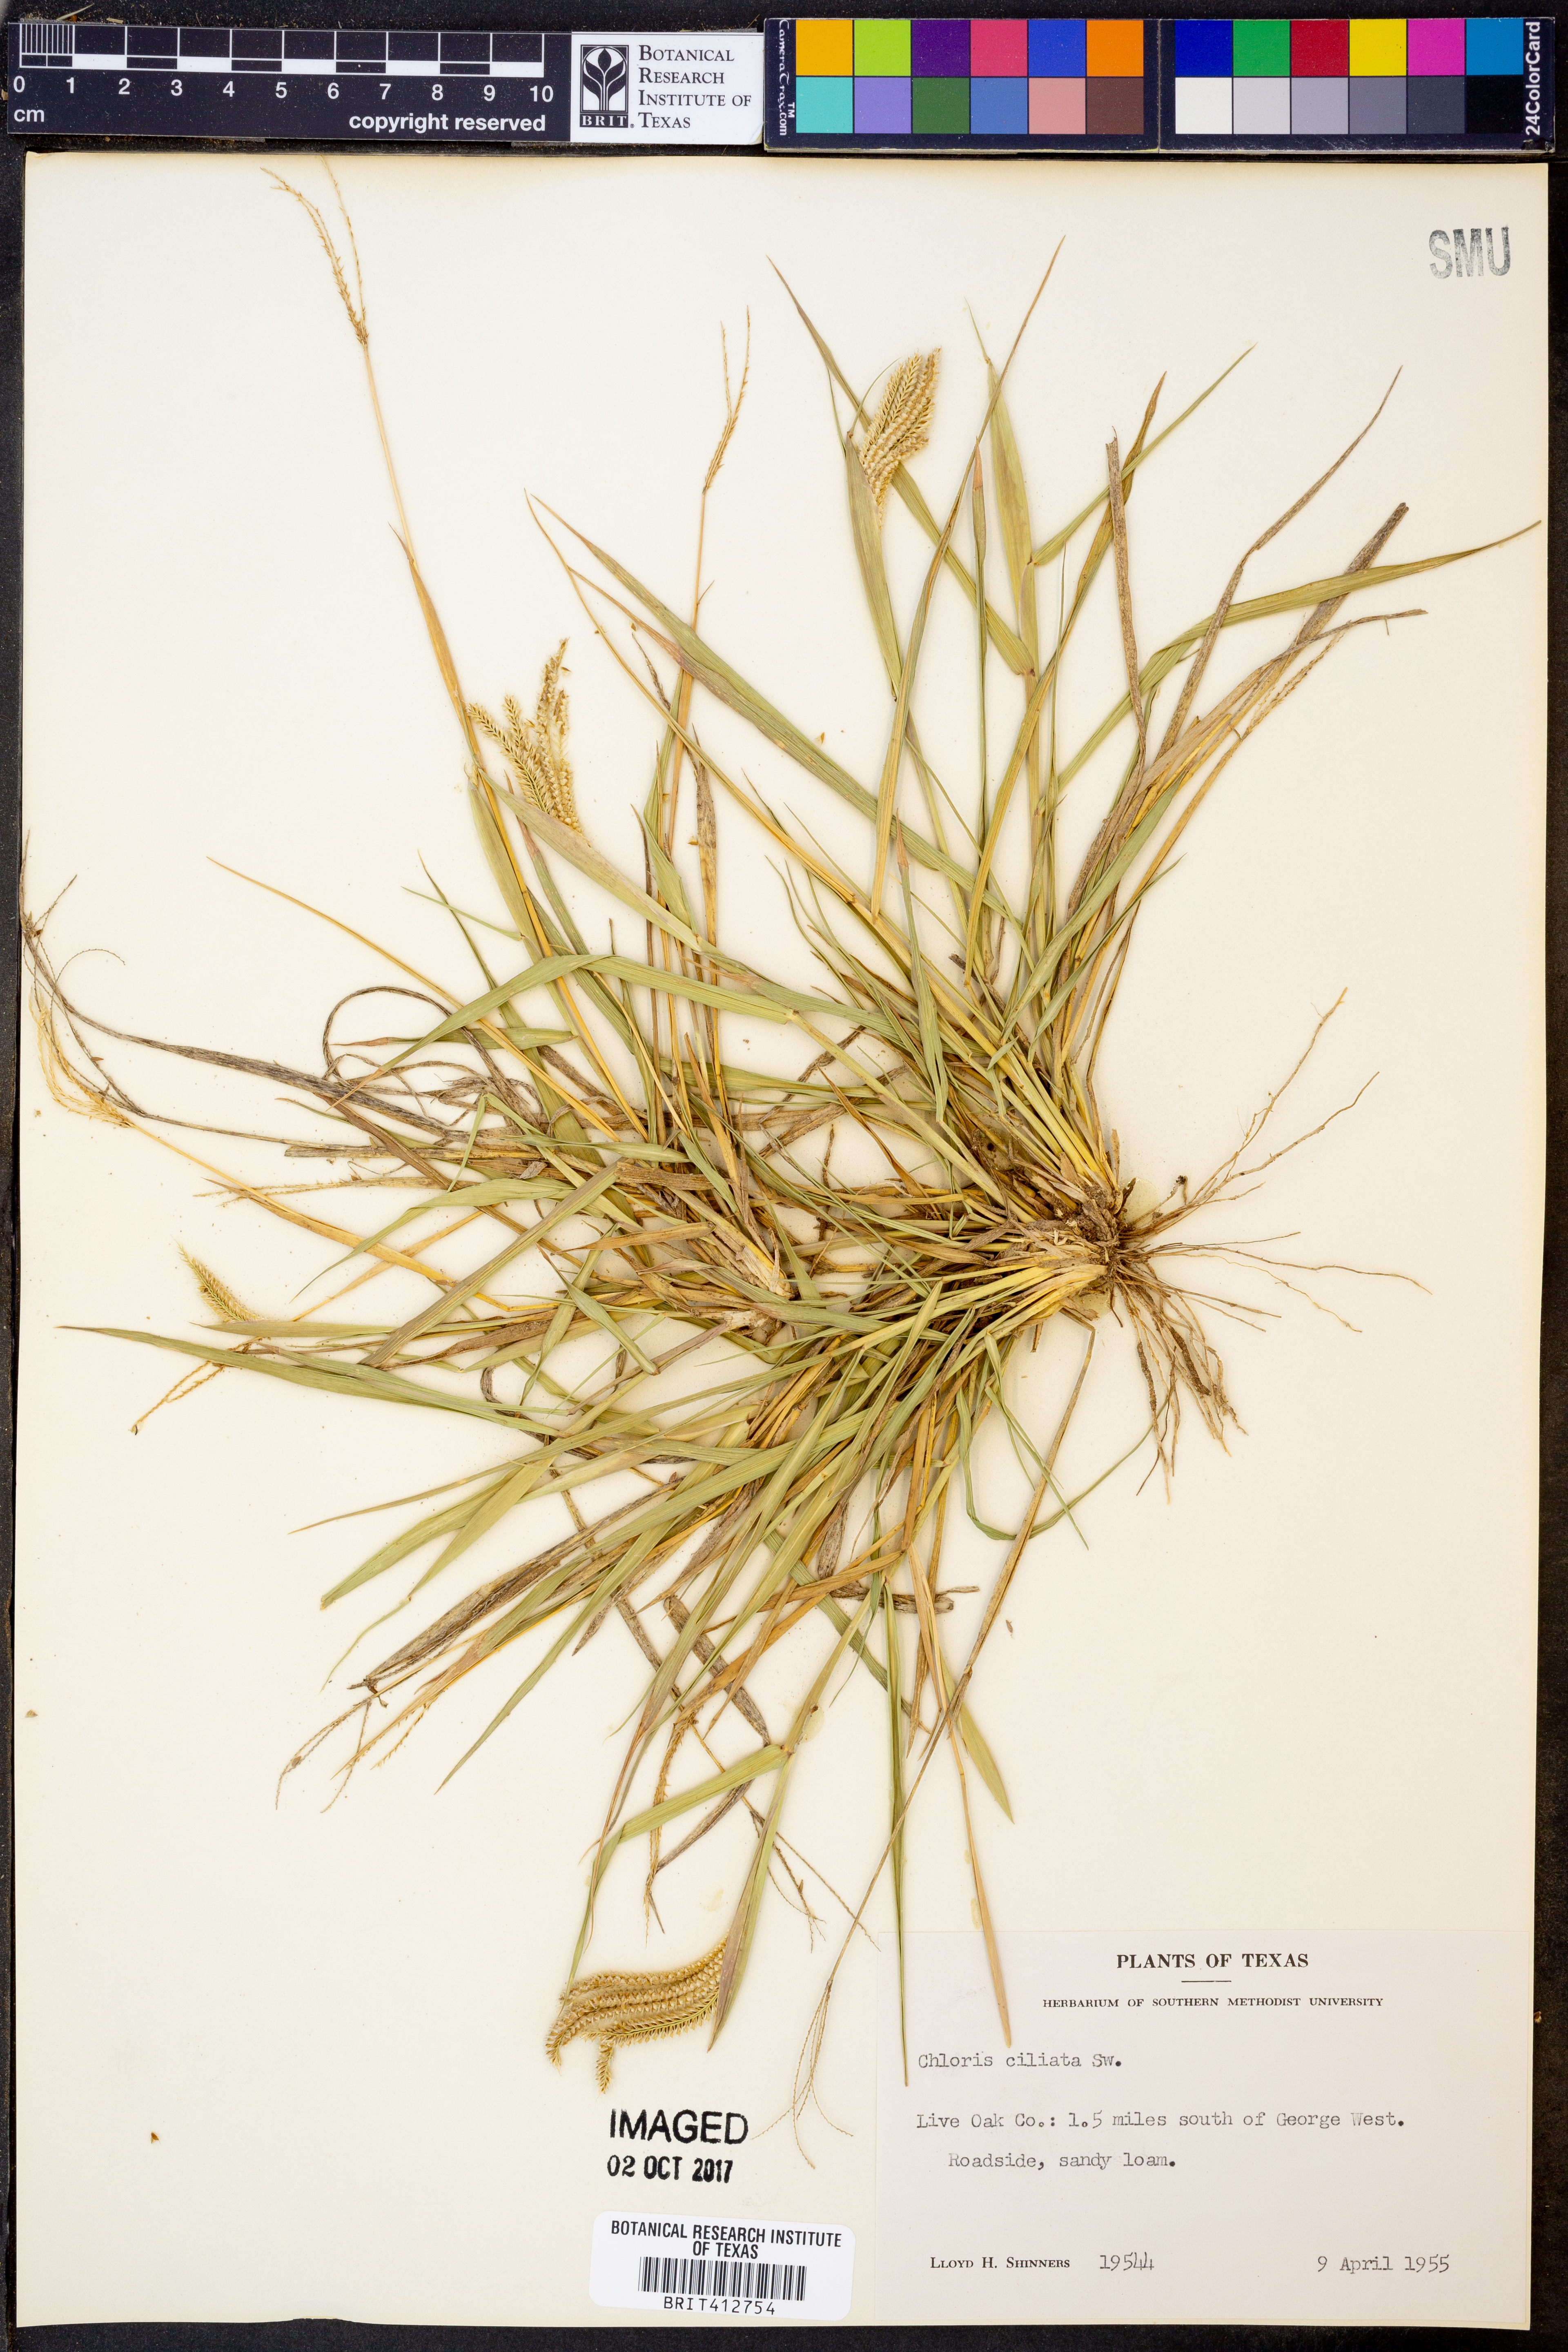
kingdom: Plantae
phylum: Tracheophyta
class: Liliopsida
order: Poales
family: Poaceae
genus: Stapfochloa
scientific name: Stapfochloa ciliata
